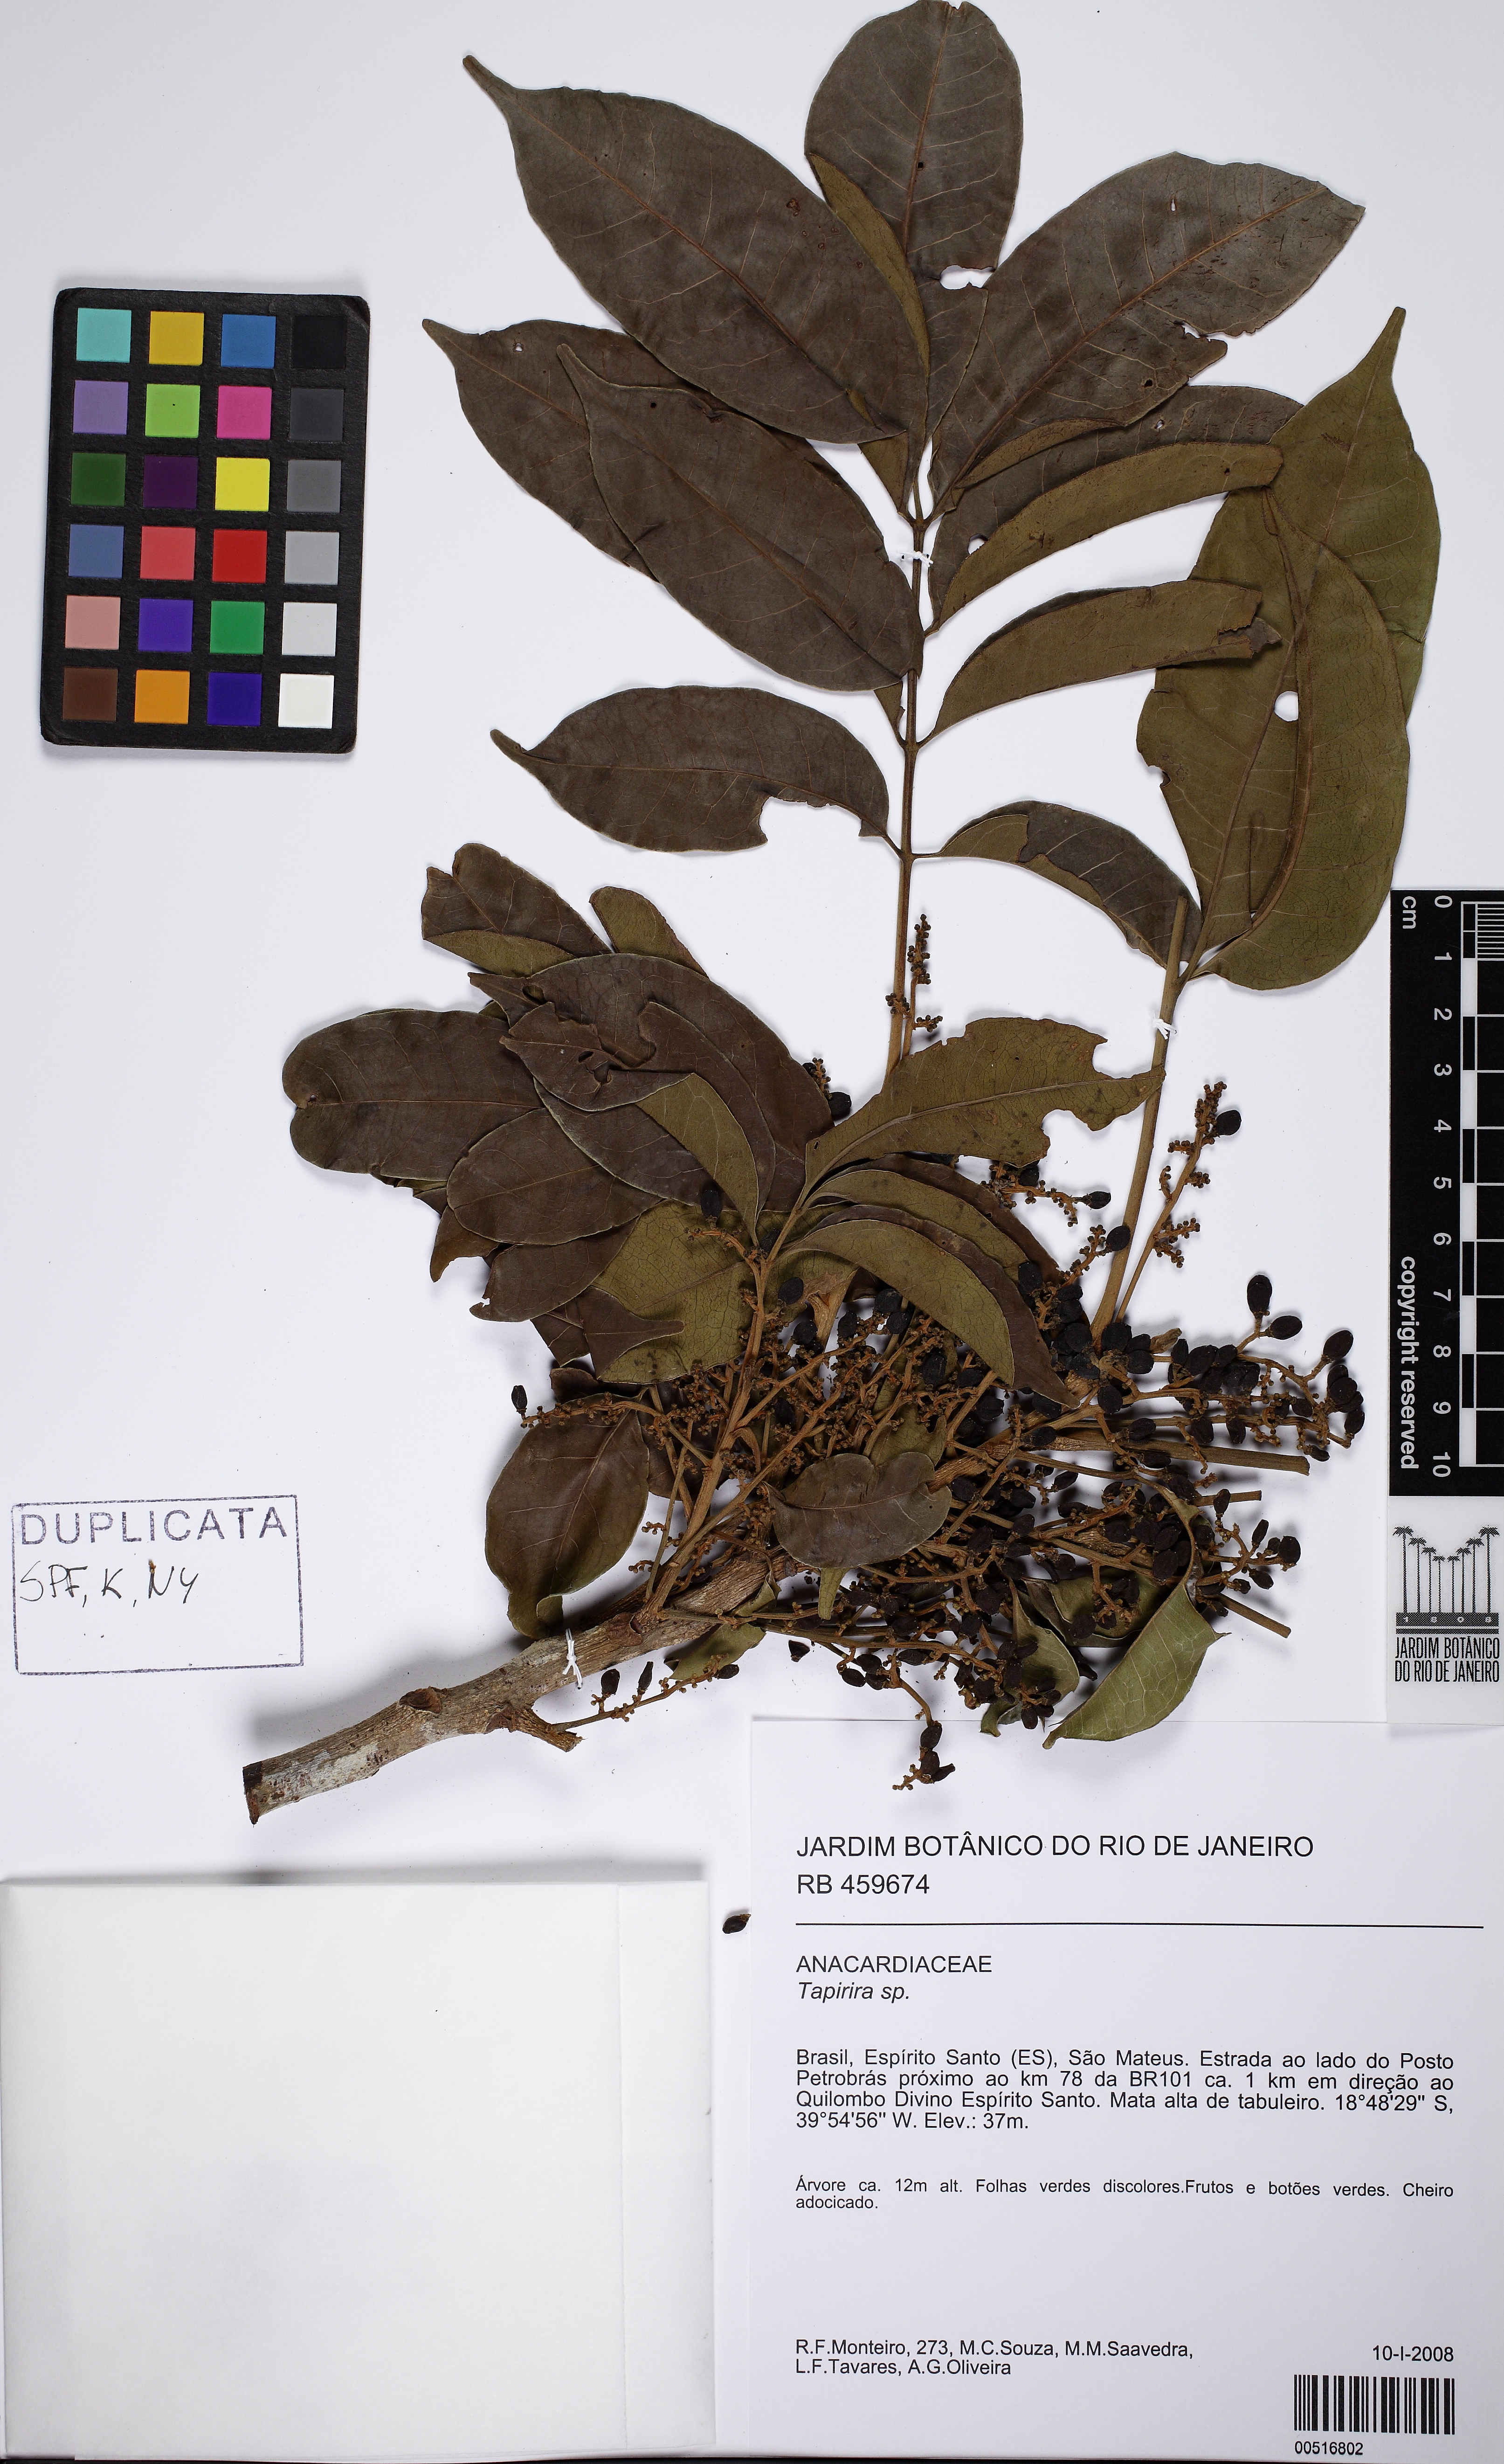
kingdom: Plantae
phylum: Tracheophyta
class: Magnoliopsida
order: Sapindales
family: Anacardiaceae
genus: Tapirira
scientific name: Tapirira
